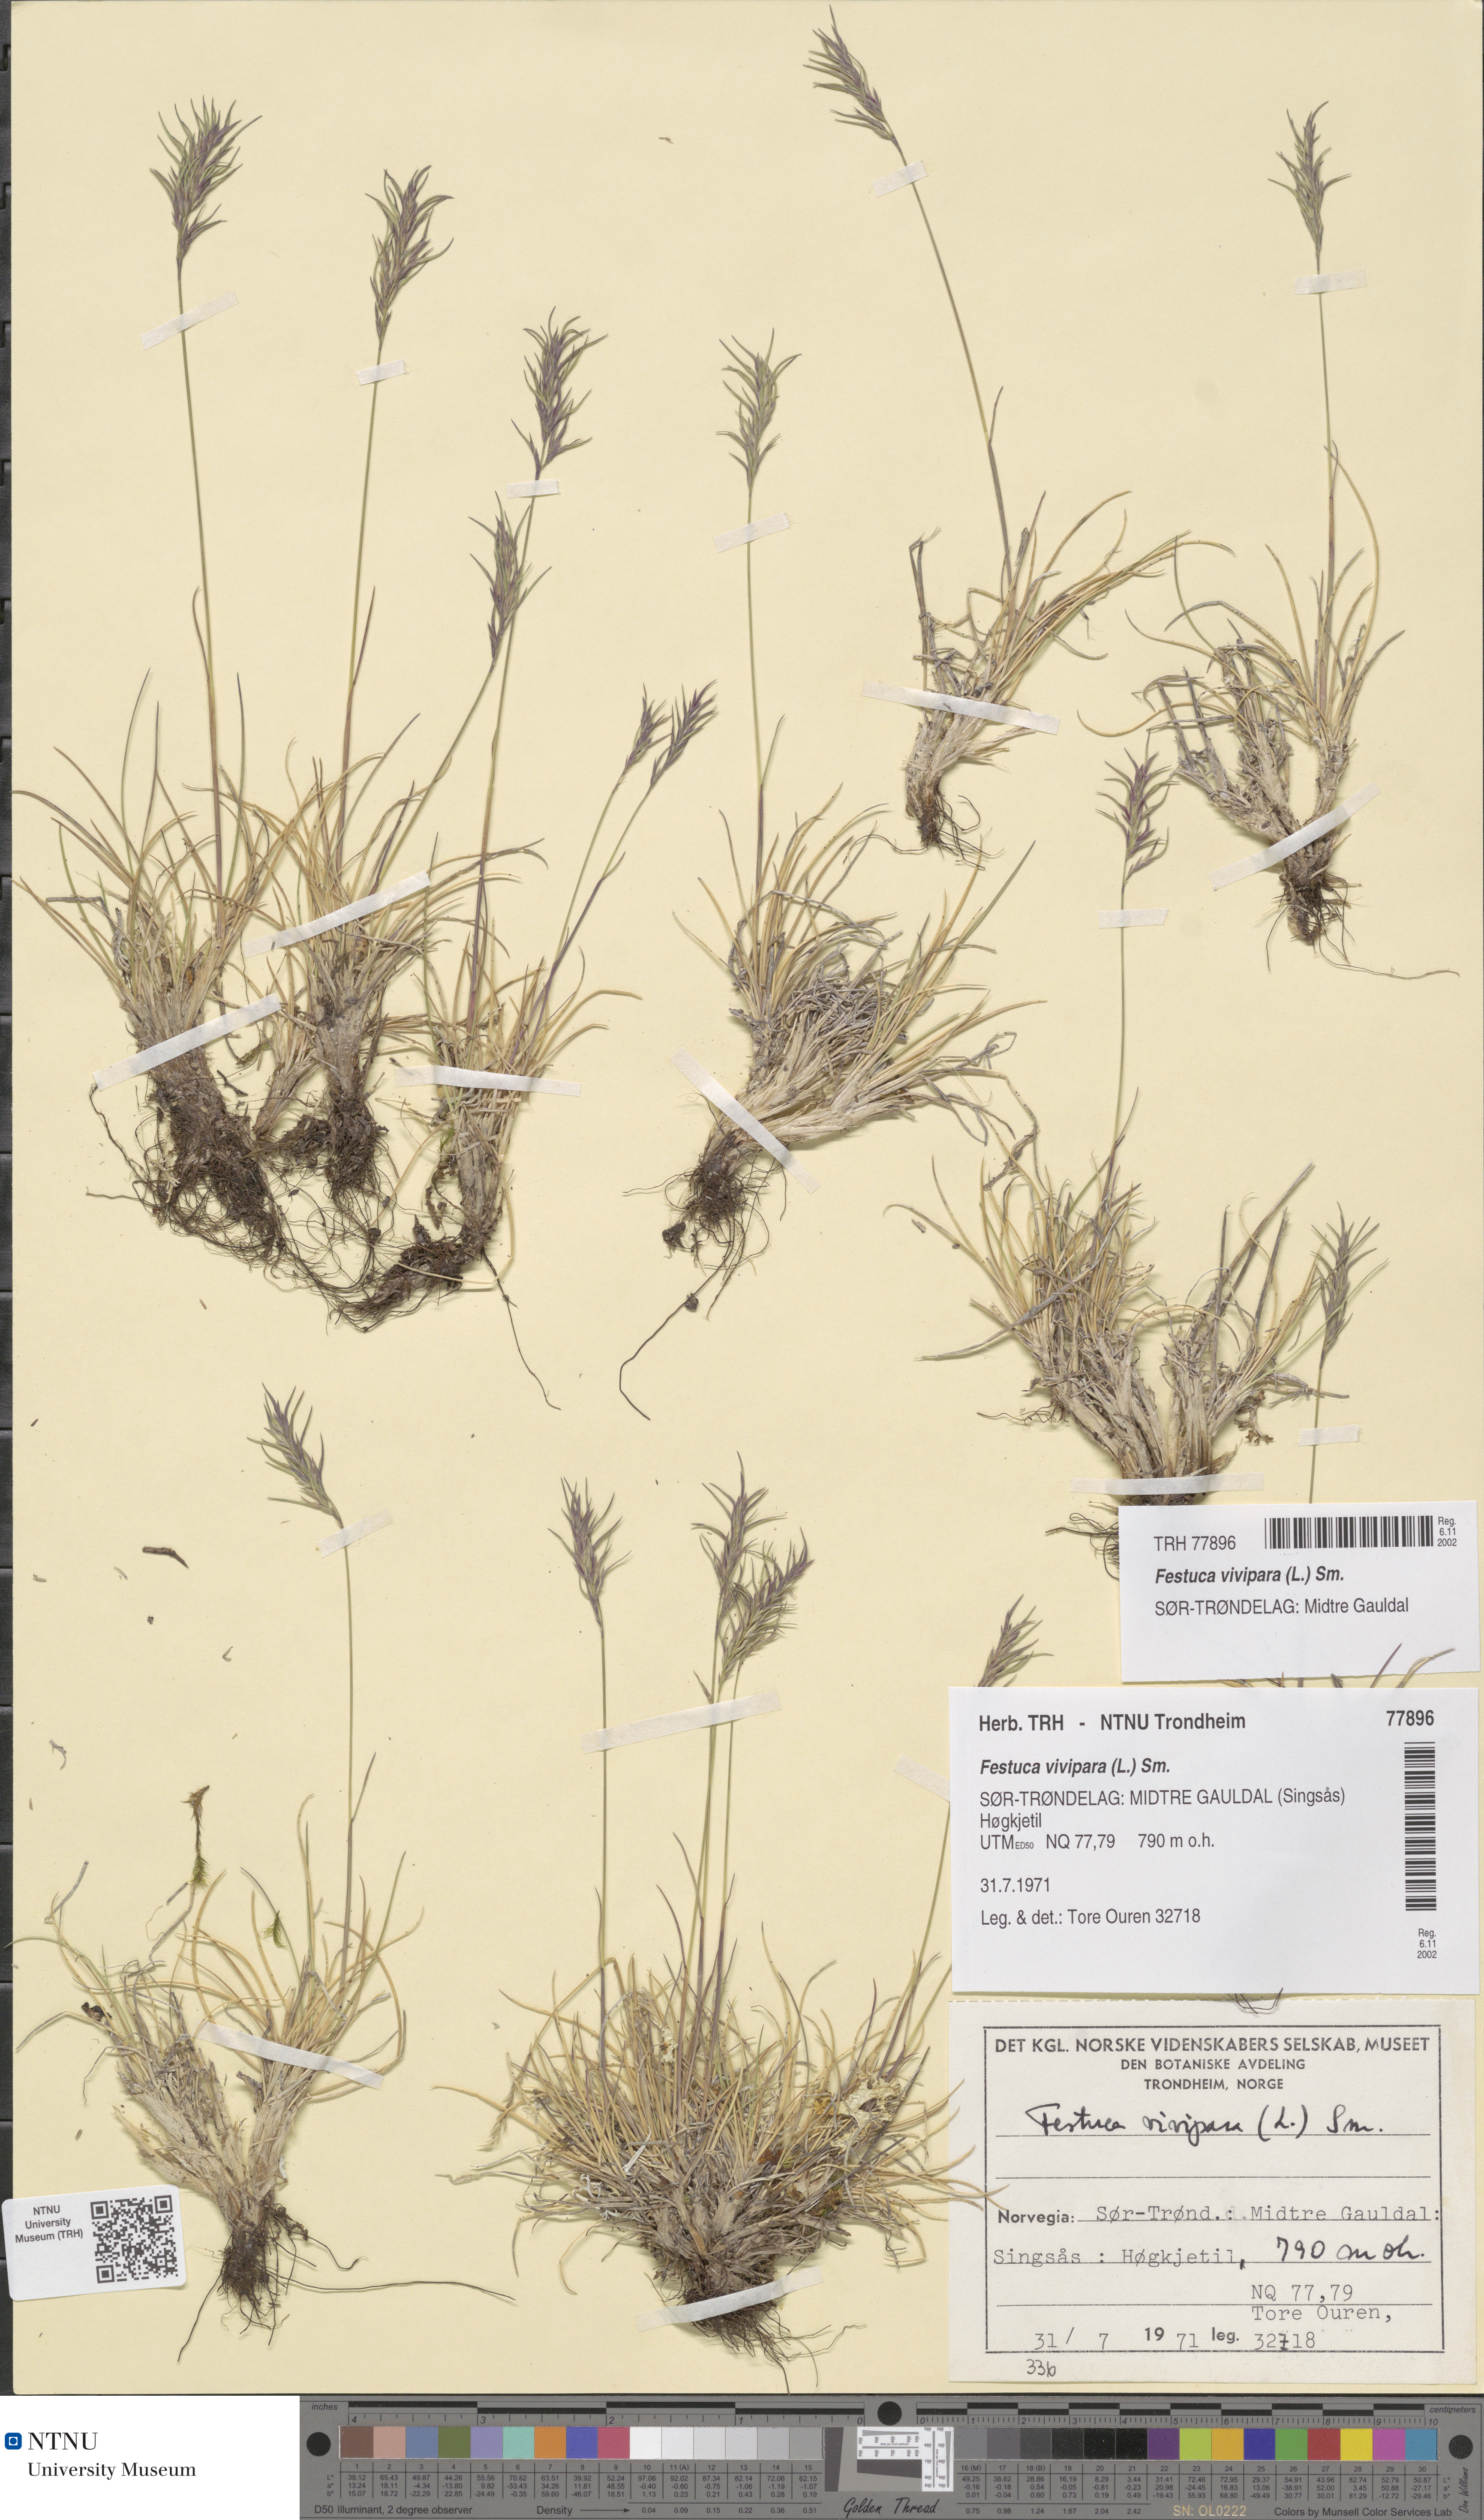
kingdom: Plantae
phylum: Tracheophyta
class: Liliopsida
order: Poales
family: Poaceae
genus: Festuca
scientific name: Festuca vivipara
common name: Viviparous sheep's-fescue
